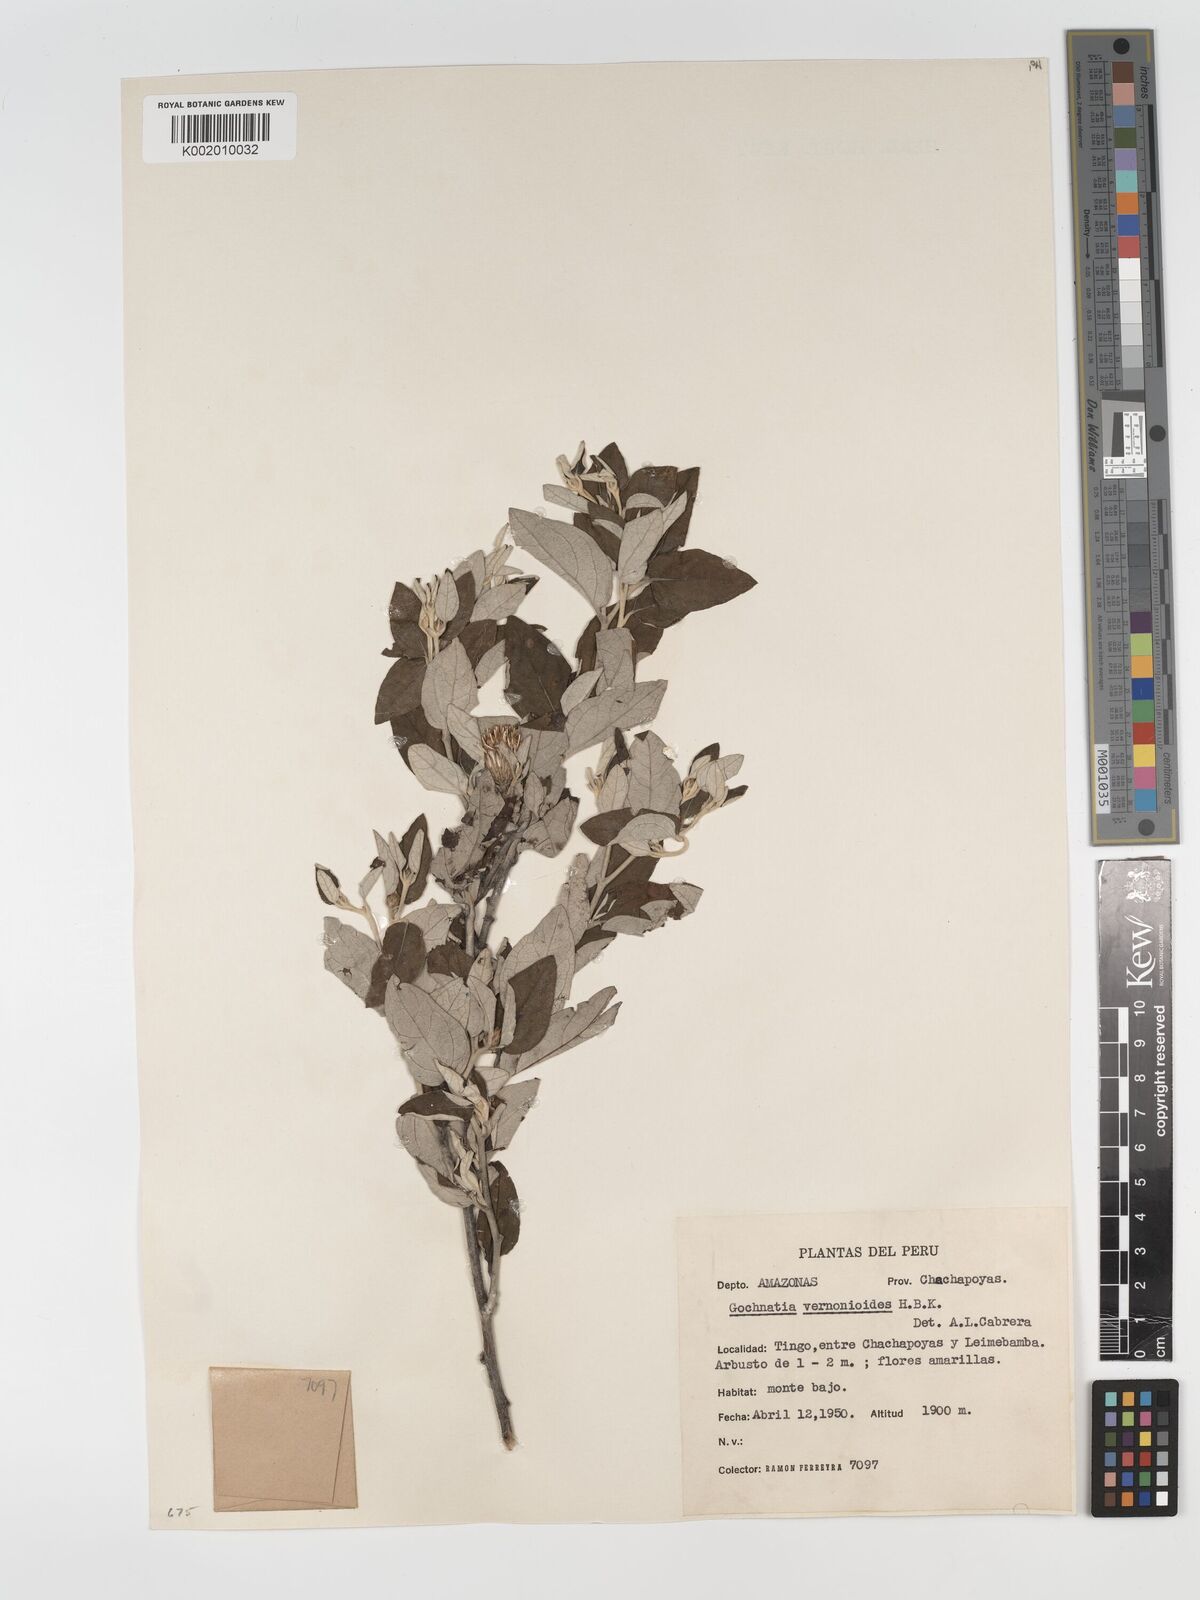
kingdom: Plantae
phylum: Tracheophyta
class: Magnoliopsida
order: Asterales
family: Asteraceae
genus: Gochnatia
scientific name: Gochnatia vernonioides
